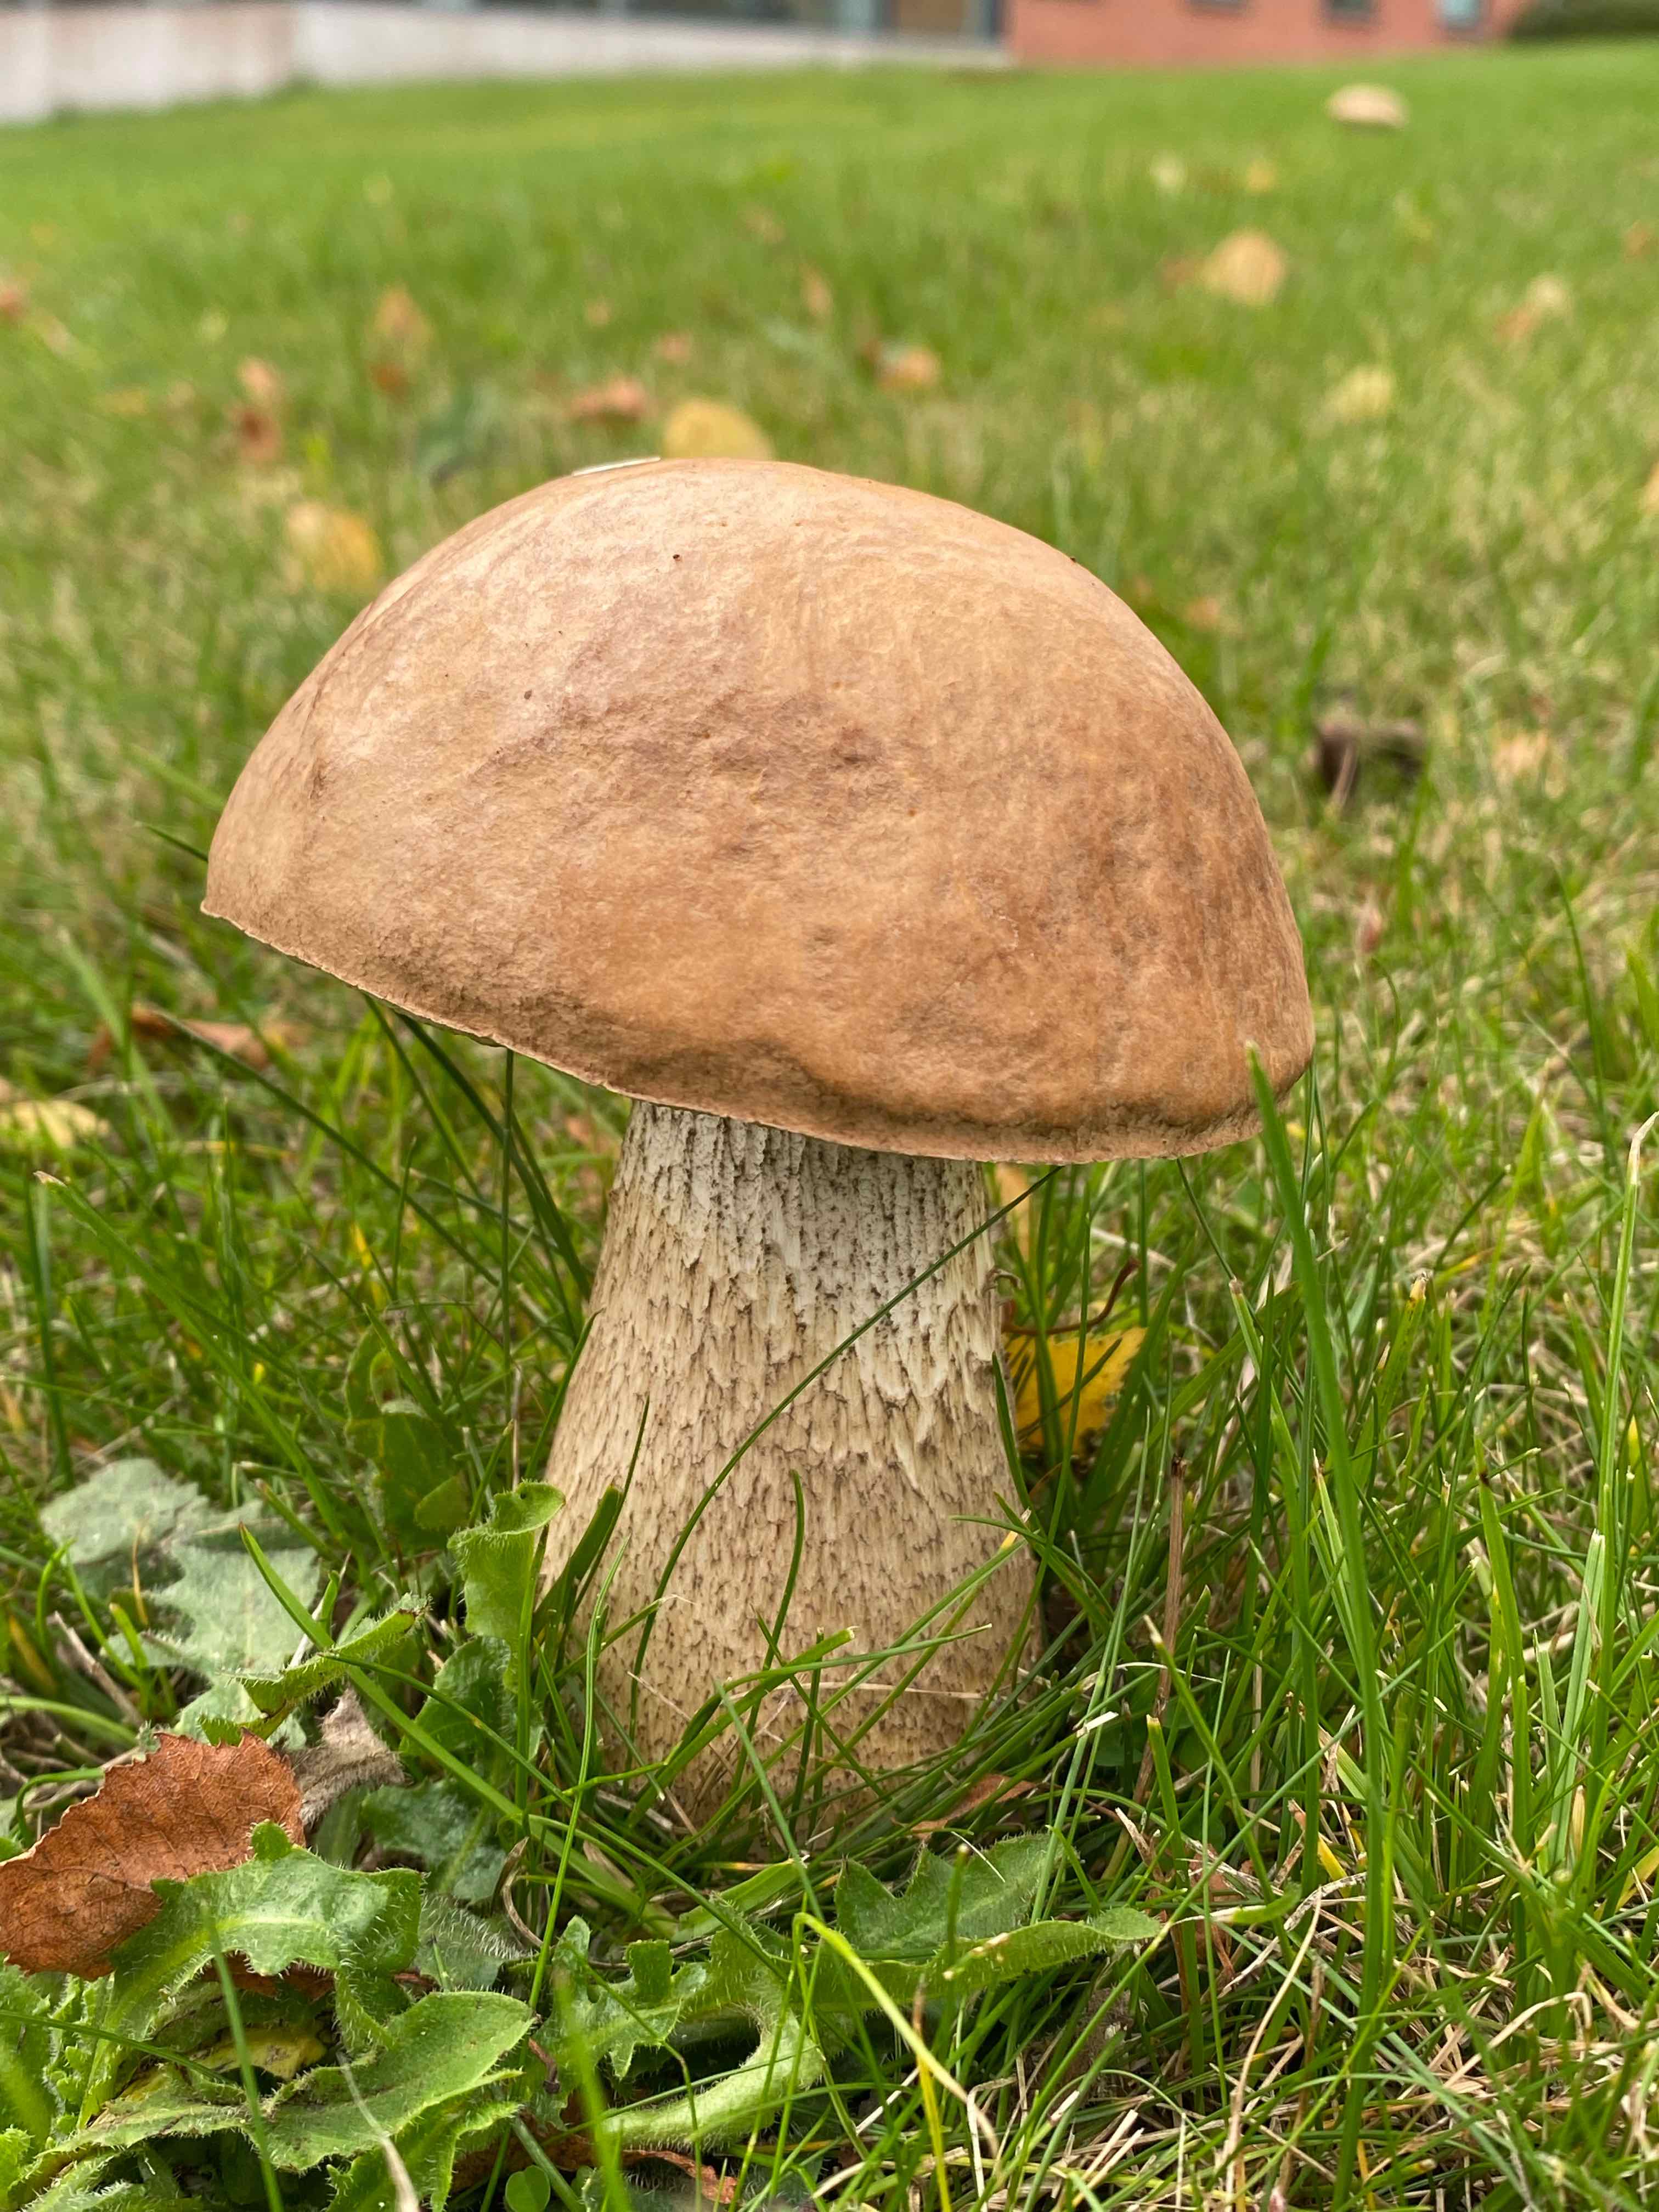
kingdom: Fungi
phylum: Basidiomycota
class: Agaricomycetes
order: Boletales
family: Boletaceae
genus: Leccinum
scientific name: Leccinum scabrum
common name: brun skælrørhat
